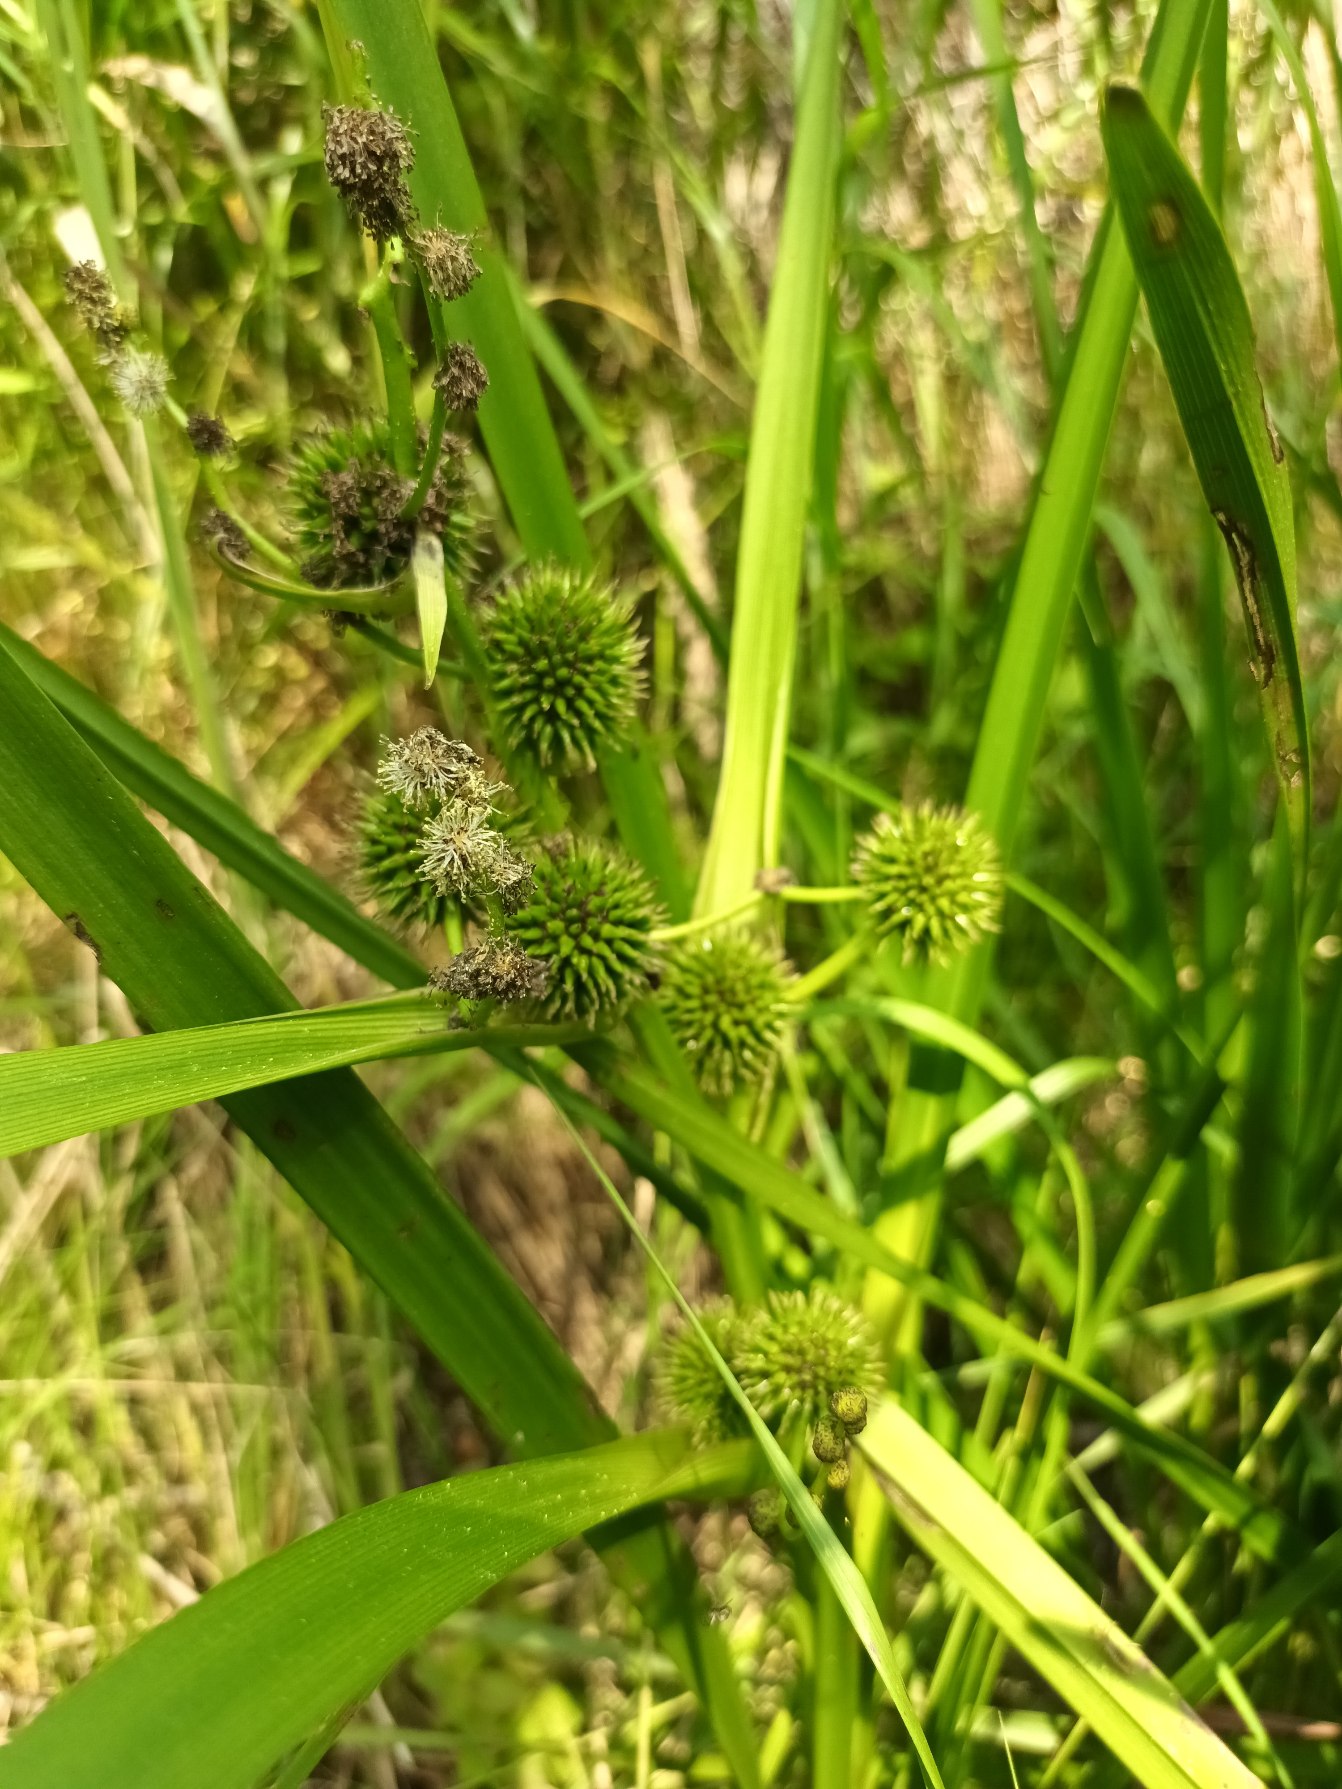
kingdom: Plantae
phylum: Tracheophyta
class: Liliopsida
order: Poales
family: Typhaceae
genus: Sparganium
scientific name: Sparganium erectum
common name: Grenet pindsvineknop
